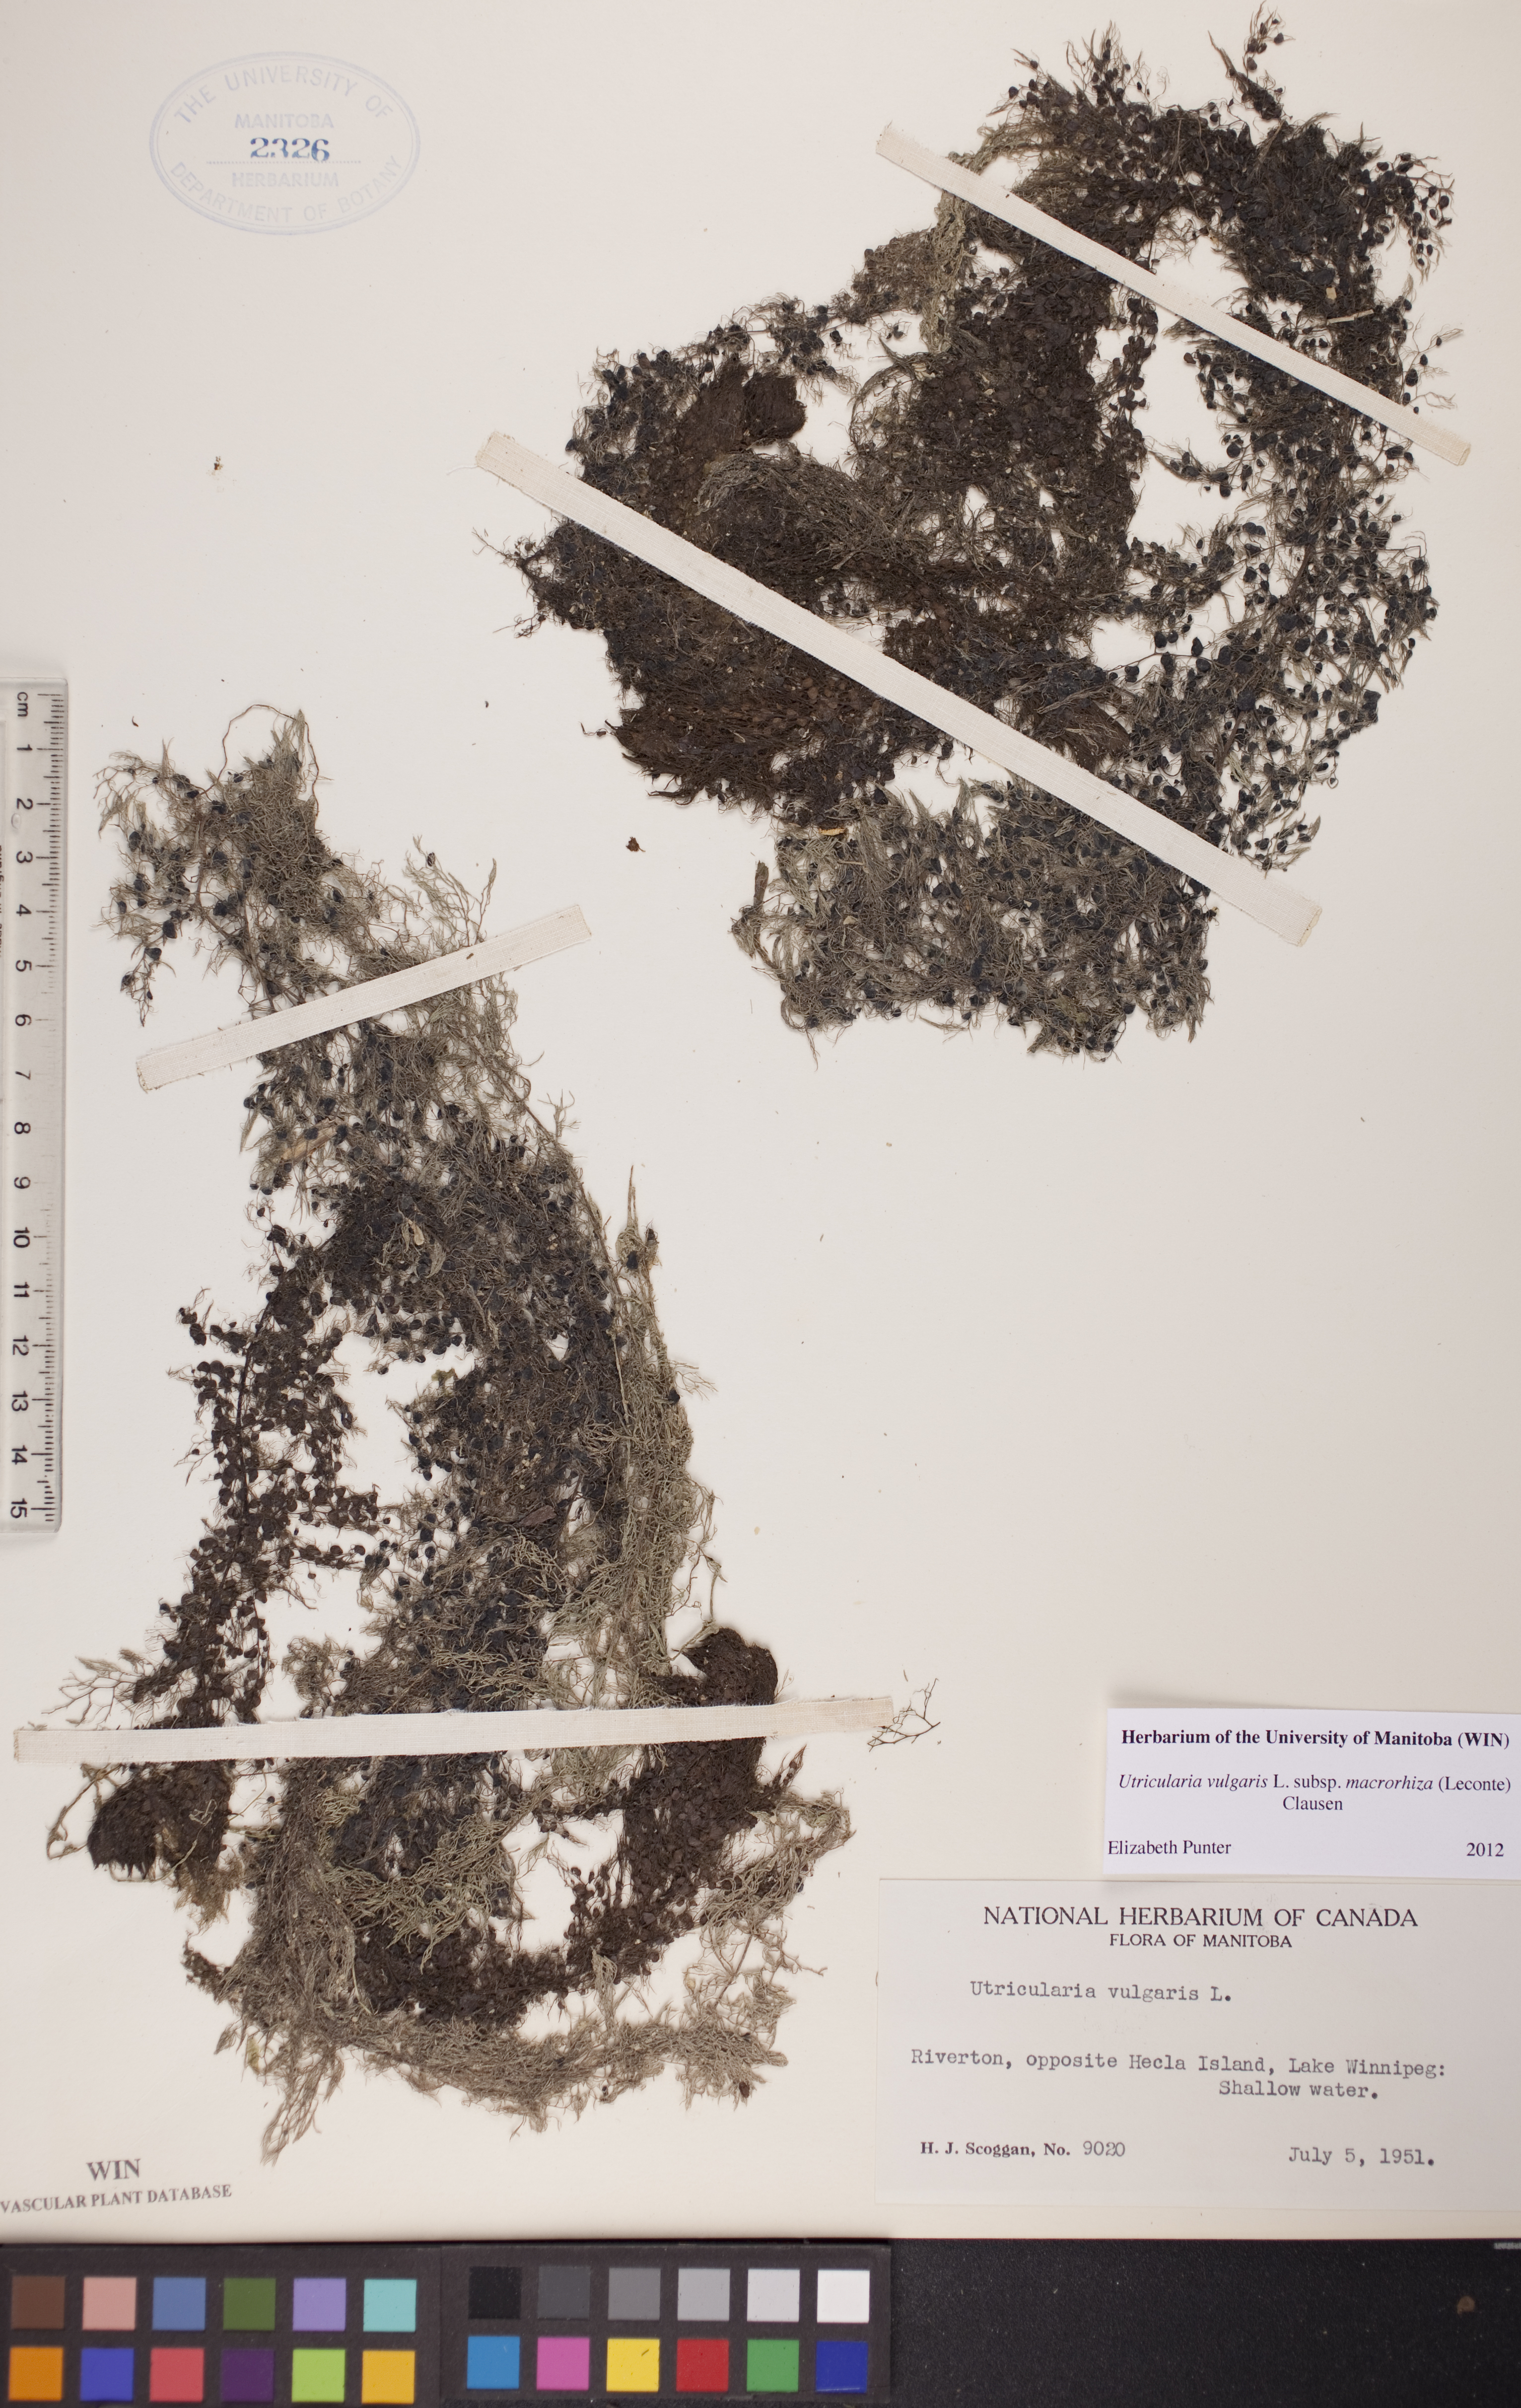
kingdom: Plantae
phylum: Tracheophyta
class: Magnoliopsida
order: Lamiales
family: Lentibulariaceae
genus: Utricularia
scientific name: Utricularia macrorhiza
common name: Common bladderwort
